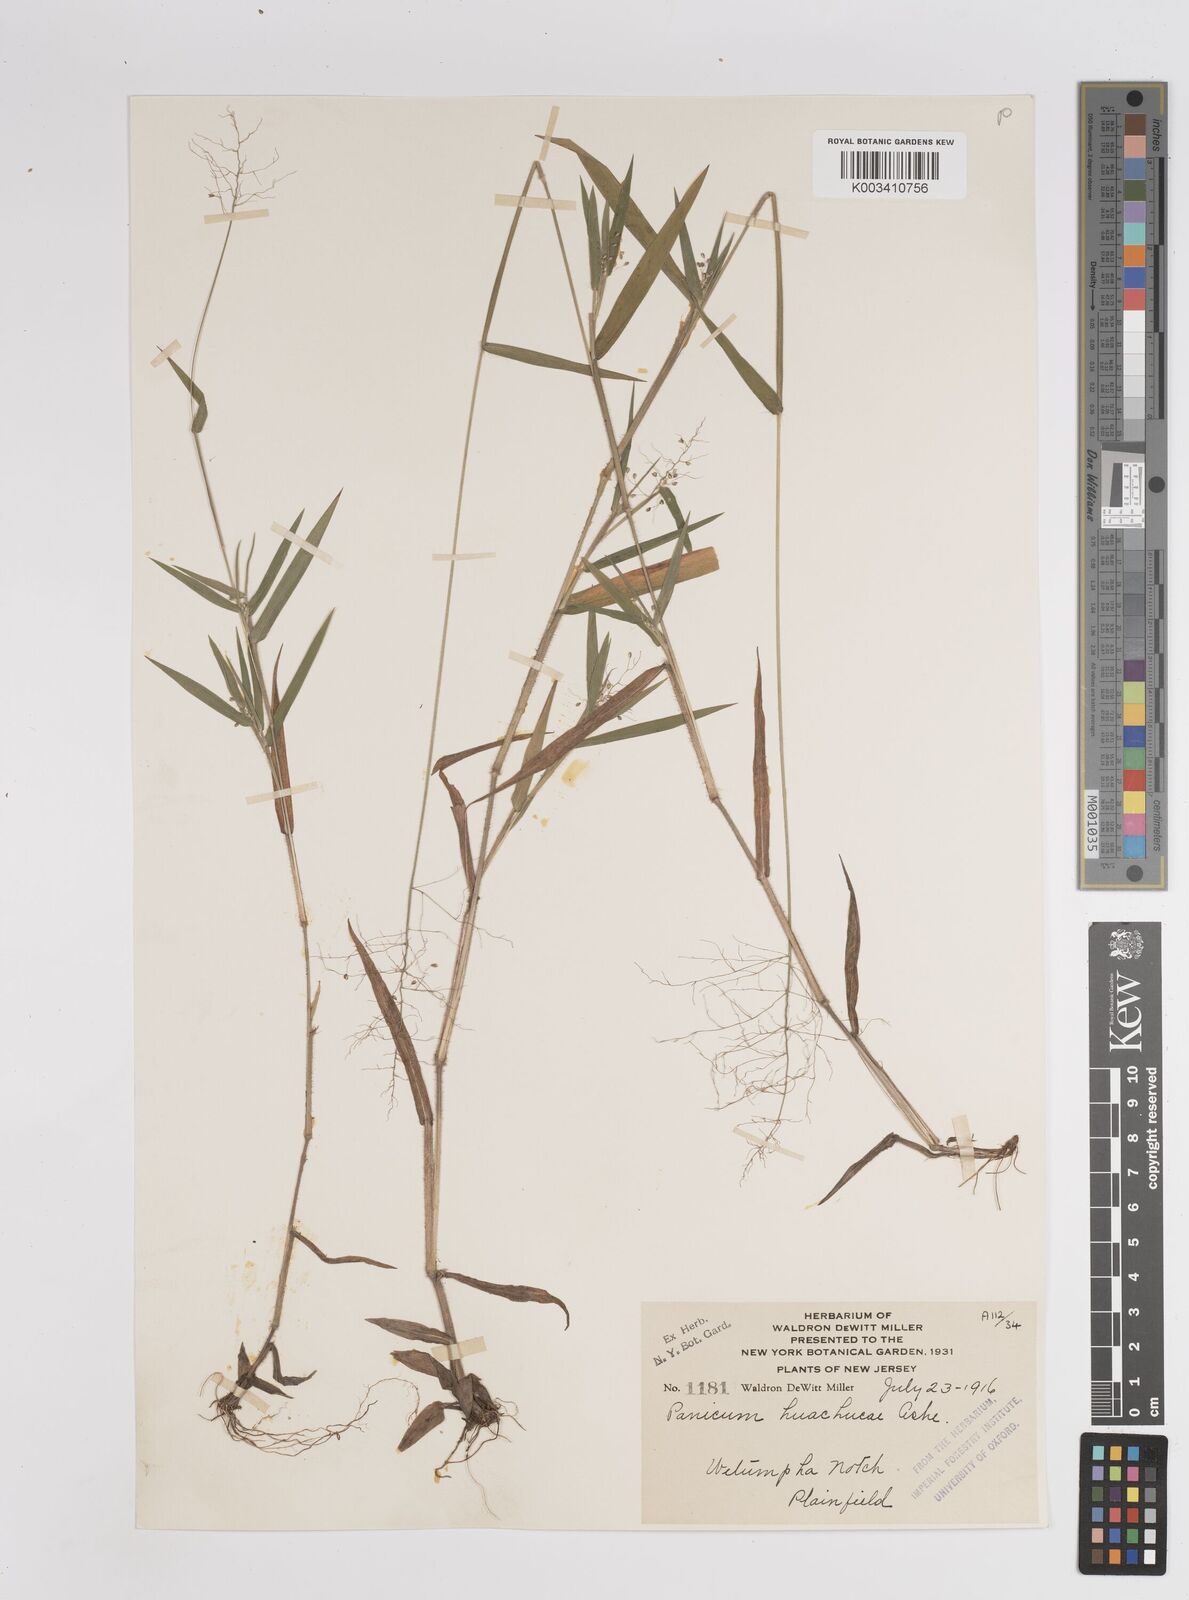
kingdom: Plantae
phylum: Tracheophyta
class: Liliopsida
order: Poales
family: Poaceae
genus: Dichanthelium
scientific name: Dichanthelium acuminatum
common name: Hairy panic grass
